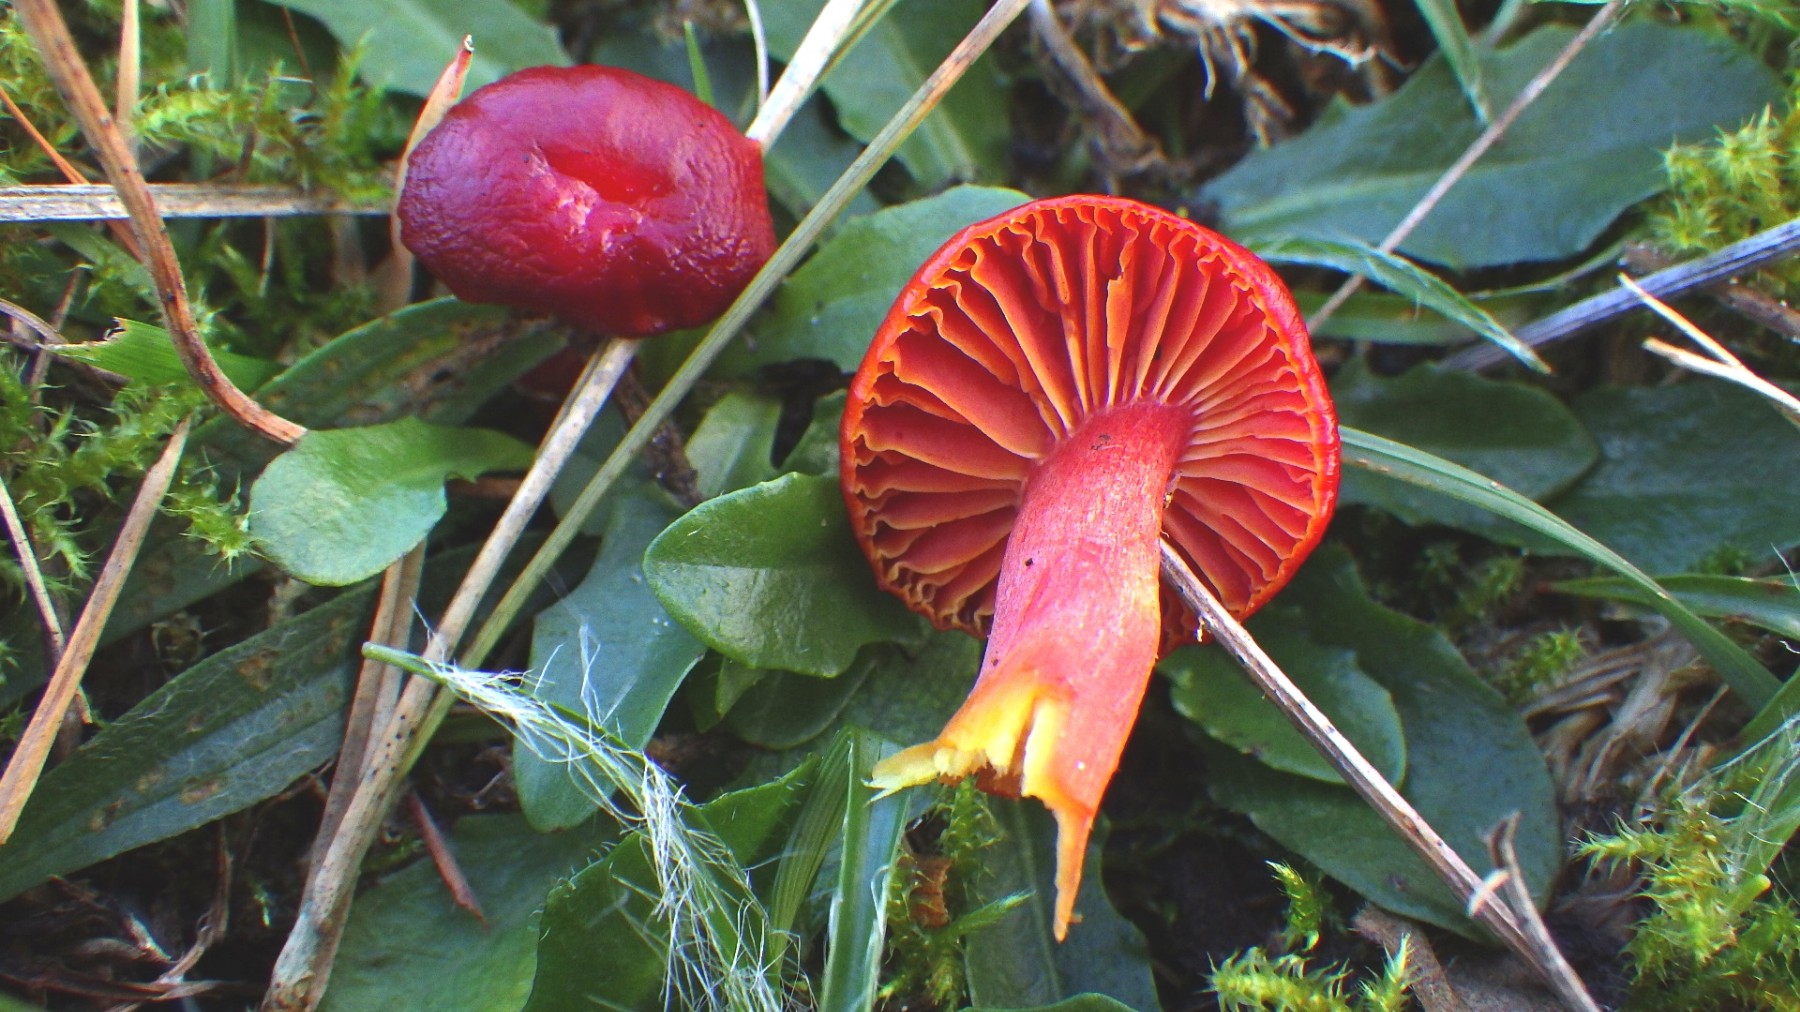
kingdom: Fungi
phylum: Basidiomycota
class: Agaricomycetes
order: Agaricales
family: Hygrophoraceae
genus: Hygrocybe
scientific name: Hygrocybe coccinea
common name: cinnober-vokshat
